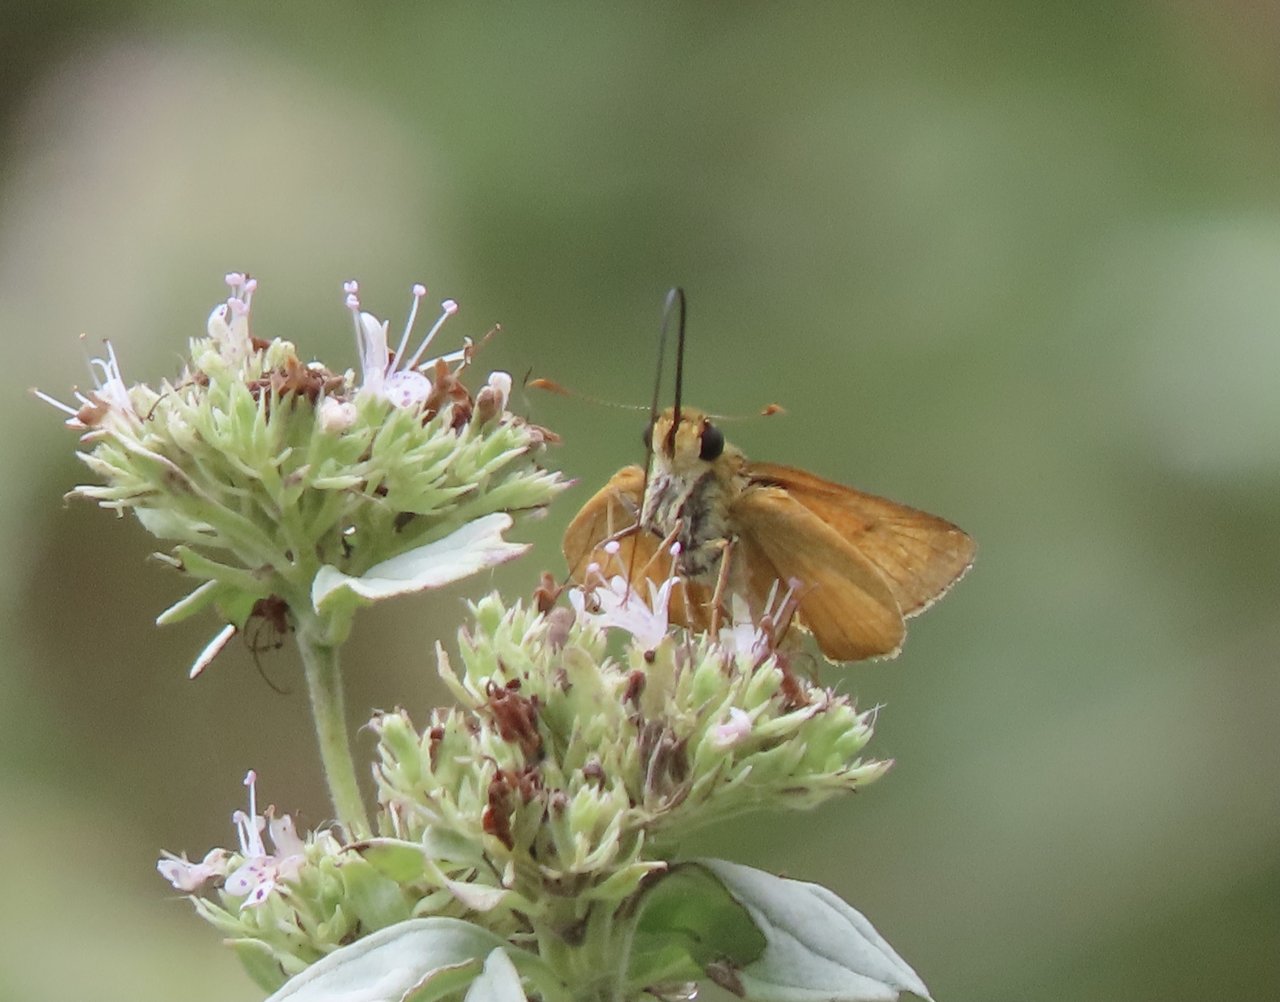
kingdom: Animalia
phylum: Arthropoda
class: Insecta
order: Lepidoptera
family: Hesperiidae
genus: Atrytone
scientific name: Atrytone delaware
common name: Delaware Skipper
